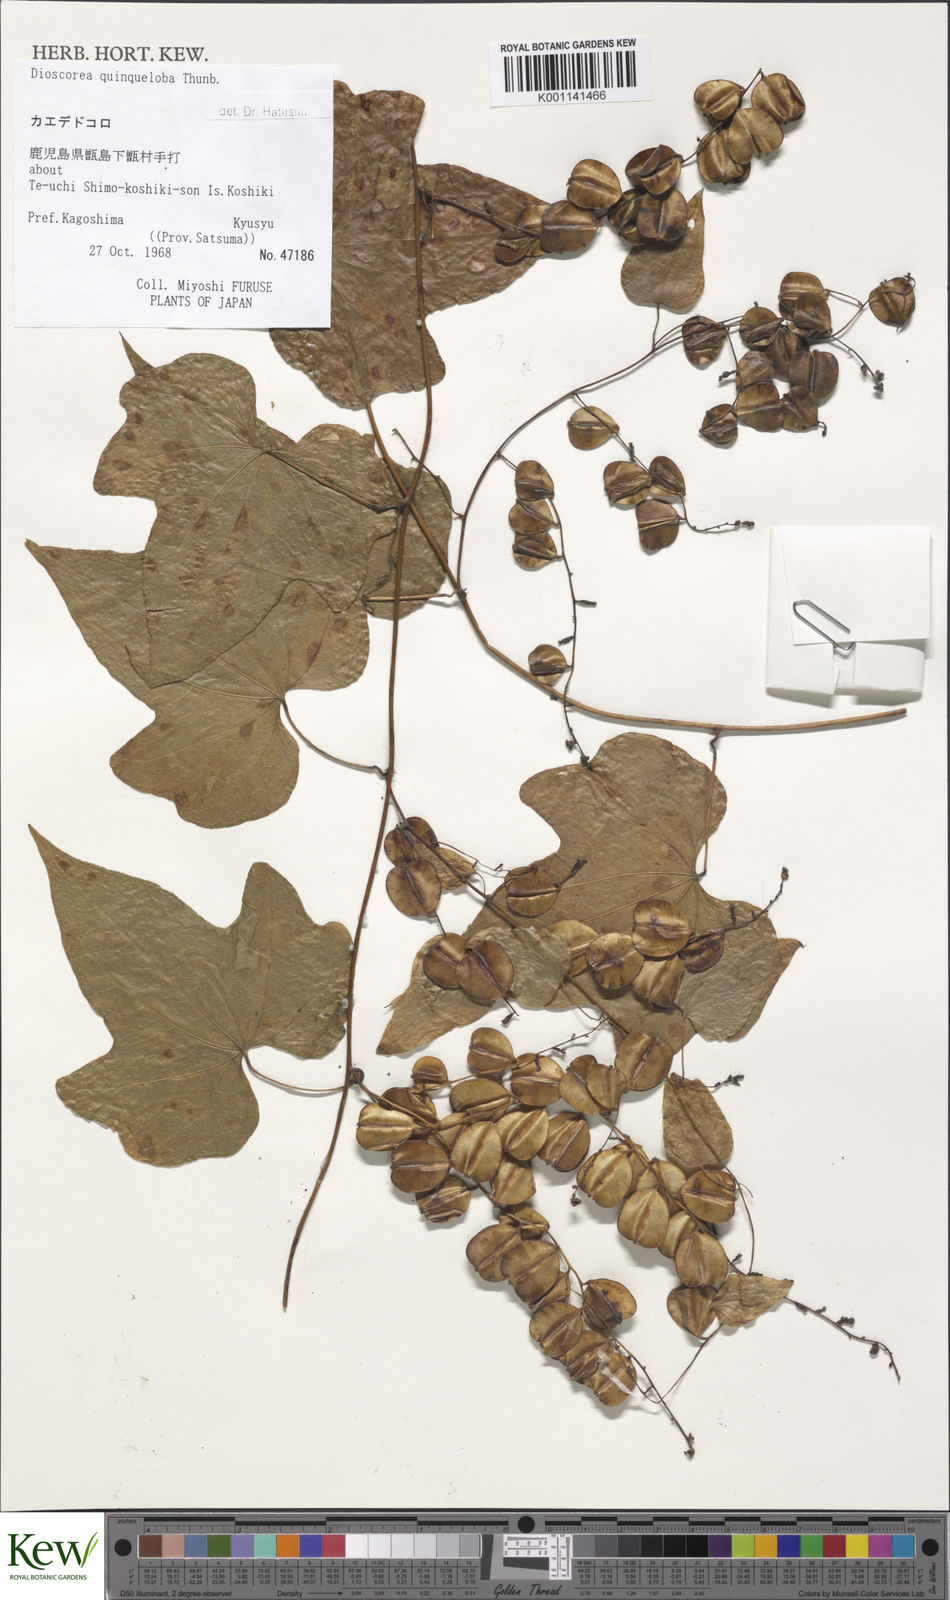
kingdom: Plantae
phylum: Tracheophyta
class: Liliopsida
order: Dioscoreales
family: Dioscoreaceae
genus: Dioscorea
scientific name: Dioscorea quinquelobata
